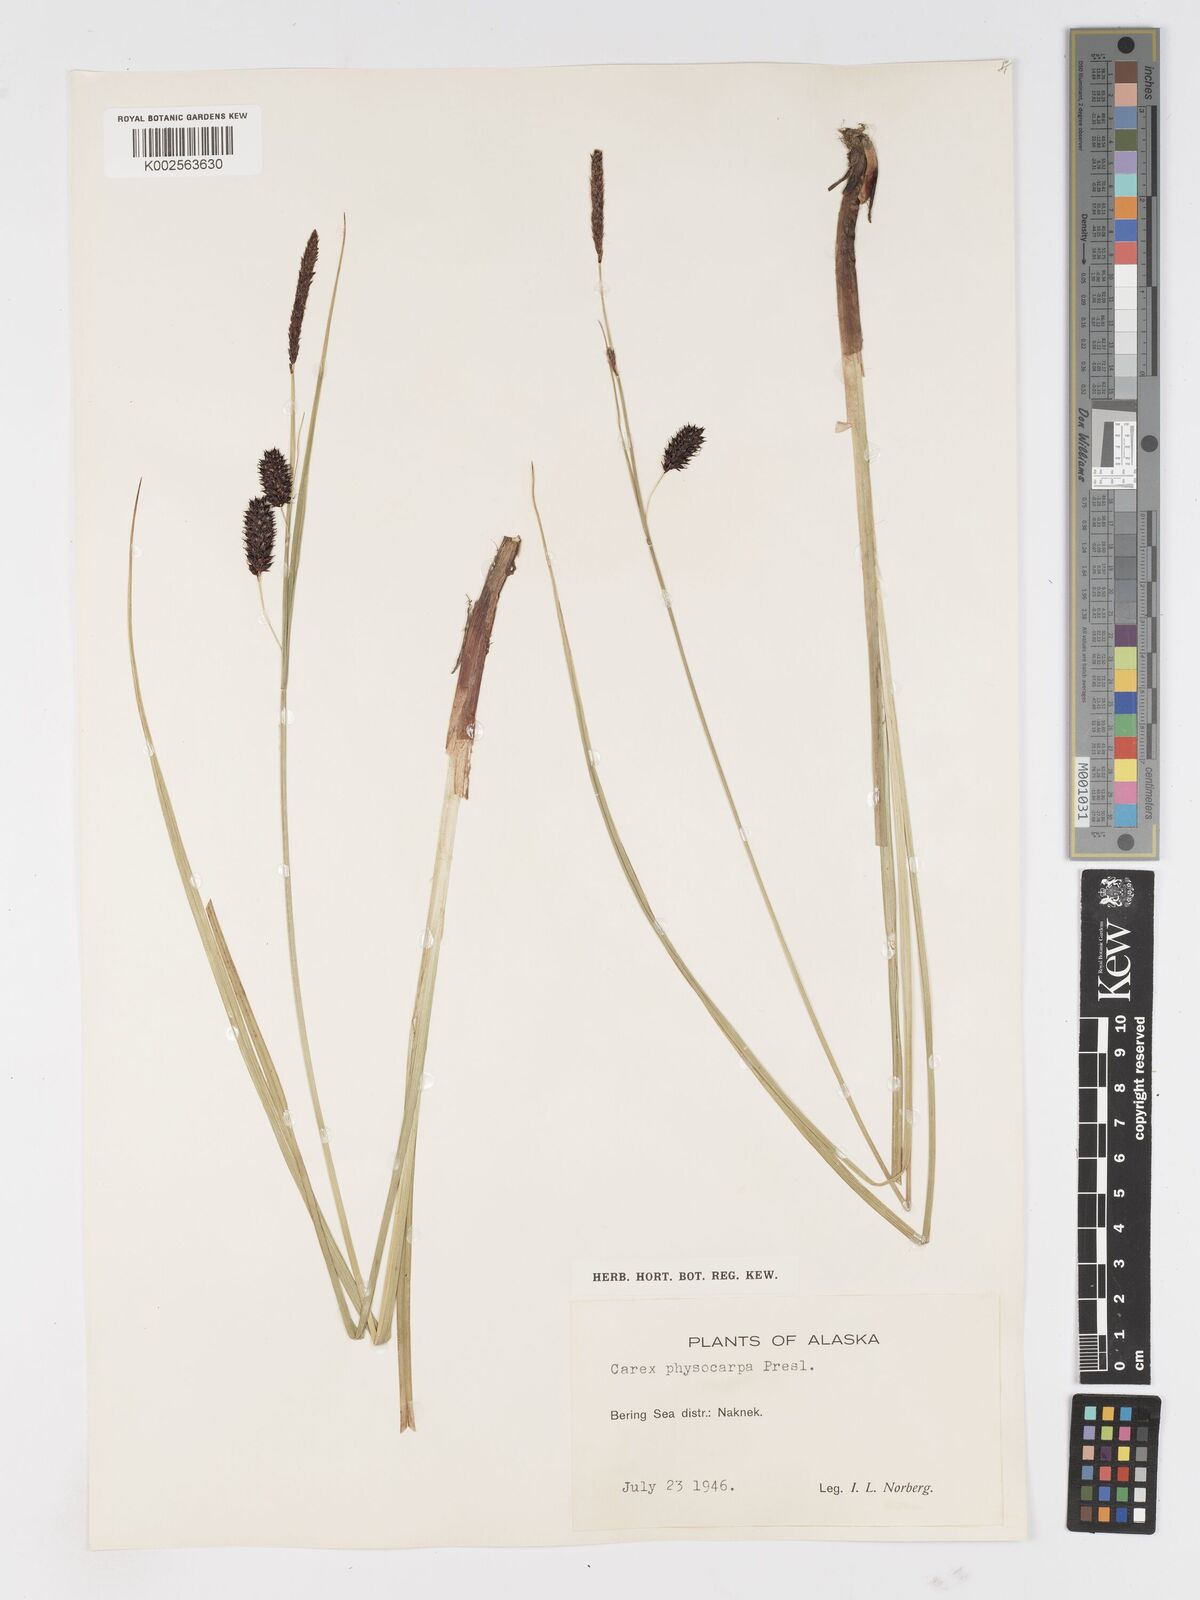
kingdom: Plantae
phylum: Tracheophyta
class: Liliopsida
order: Poales
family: Cyperaceae
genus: Carex
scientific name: Carex saxatilis
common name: Russet sedge
